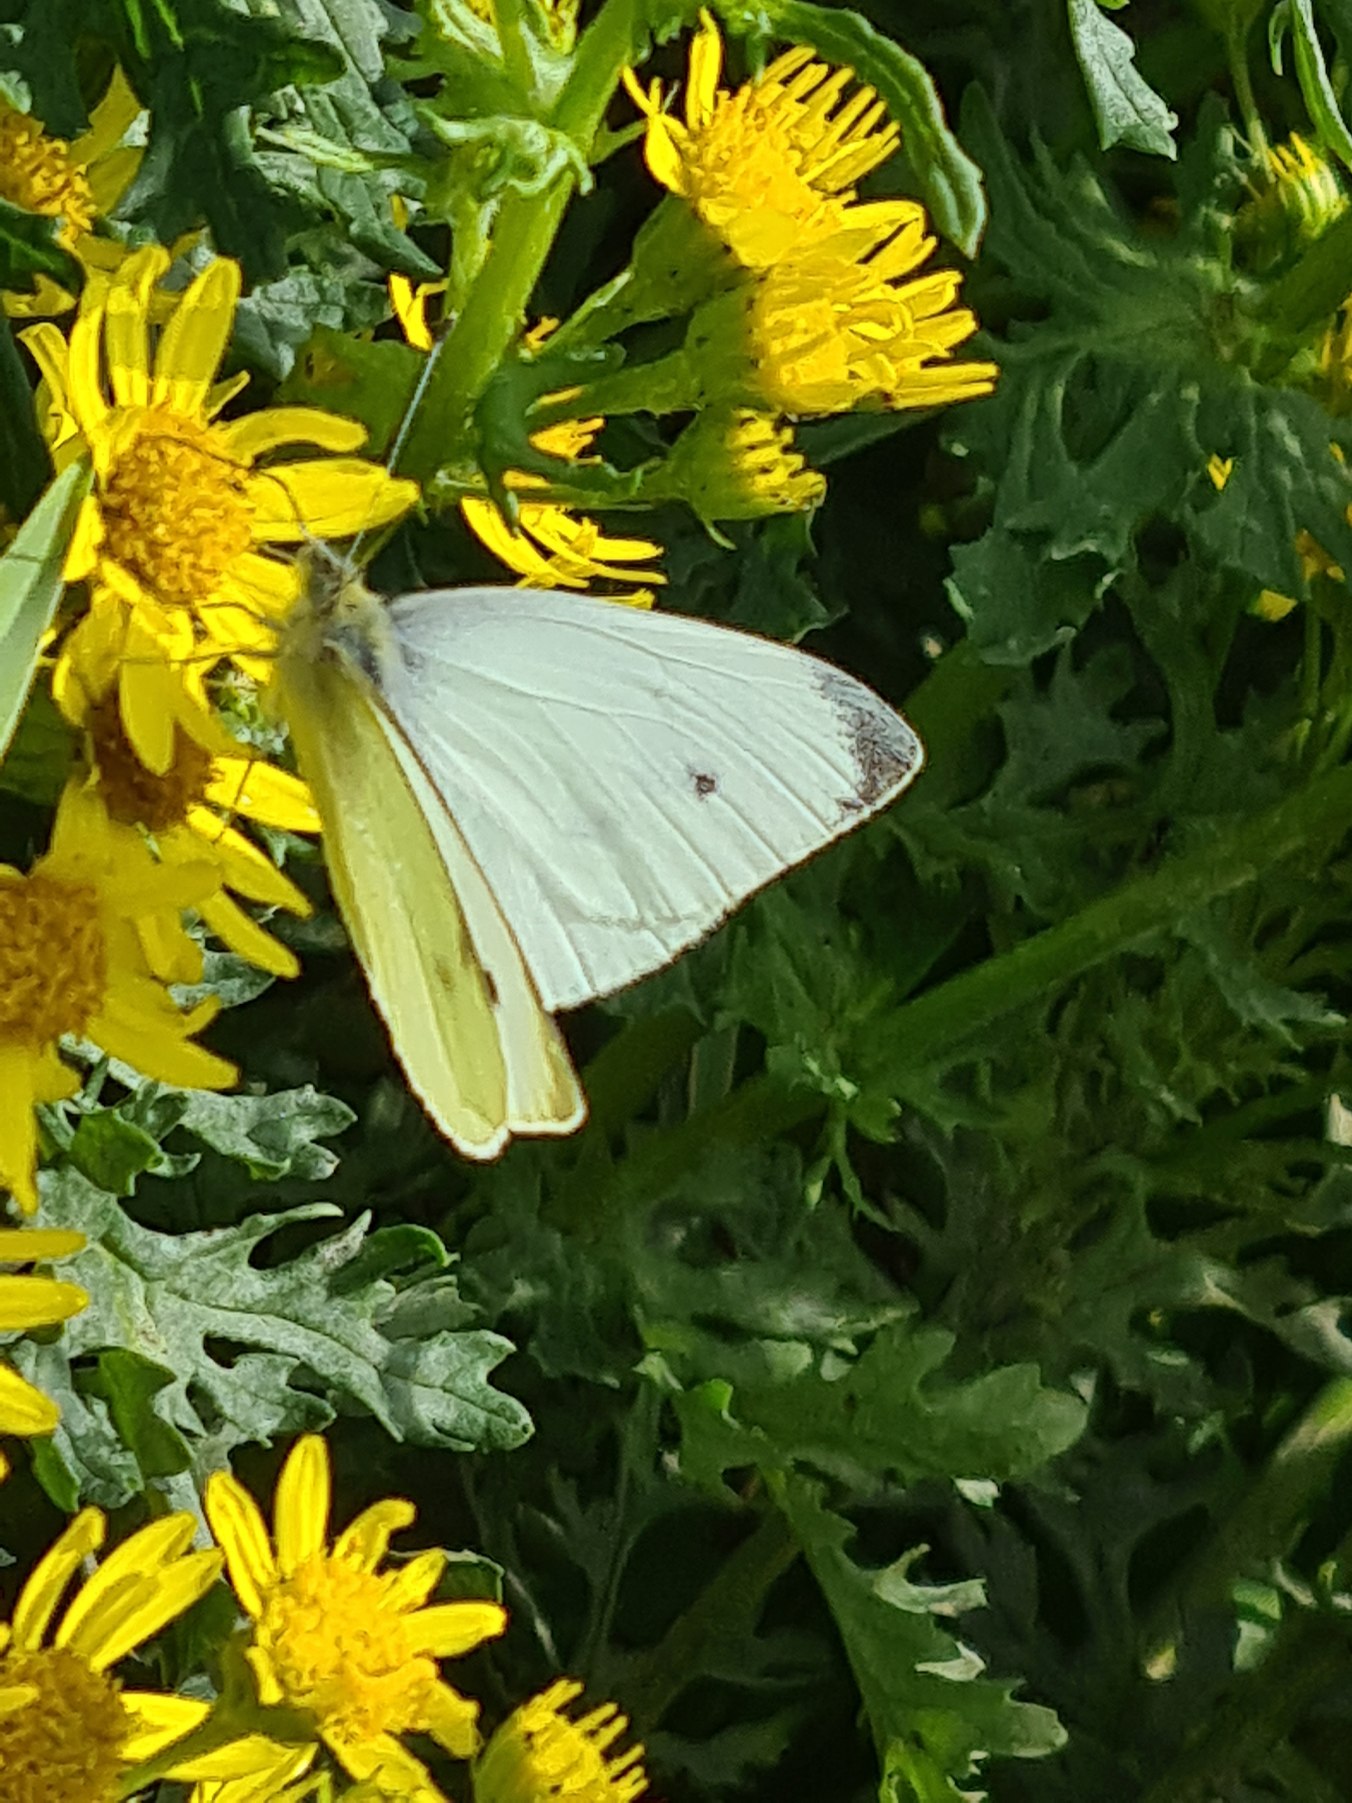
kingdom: Animalia
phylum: Arthropoda
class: Insecta
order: Lepidoptera
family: Pieridae
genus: Pieris
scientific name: Pieris rapae
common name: Lille kålsommerfugl
